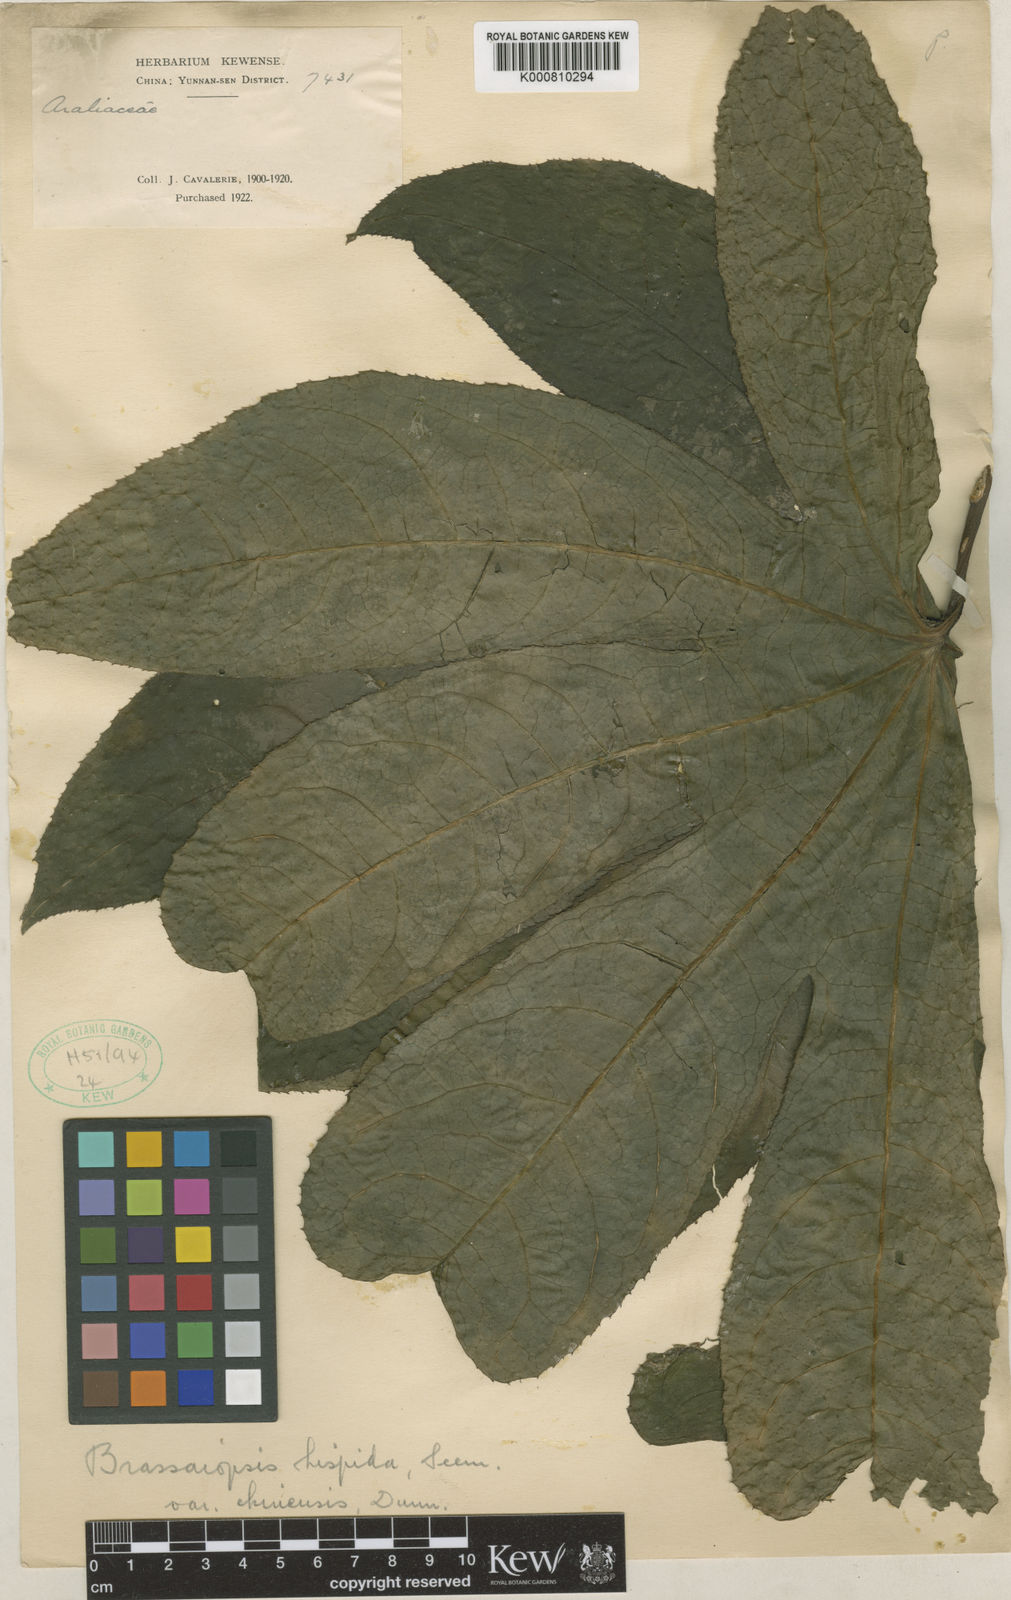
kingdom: Plantae
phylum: Tracheophyta
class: Magnoliopsida
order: Apiales
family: Araliaceae
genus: Brassaiopsis
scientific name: Brassaiopsis hispida
